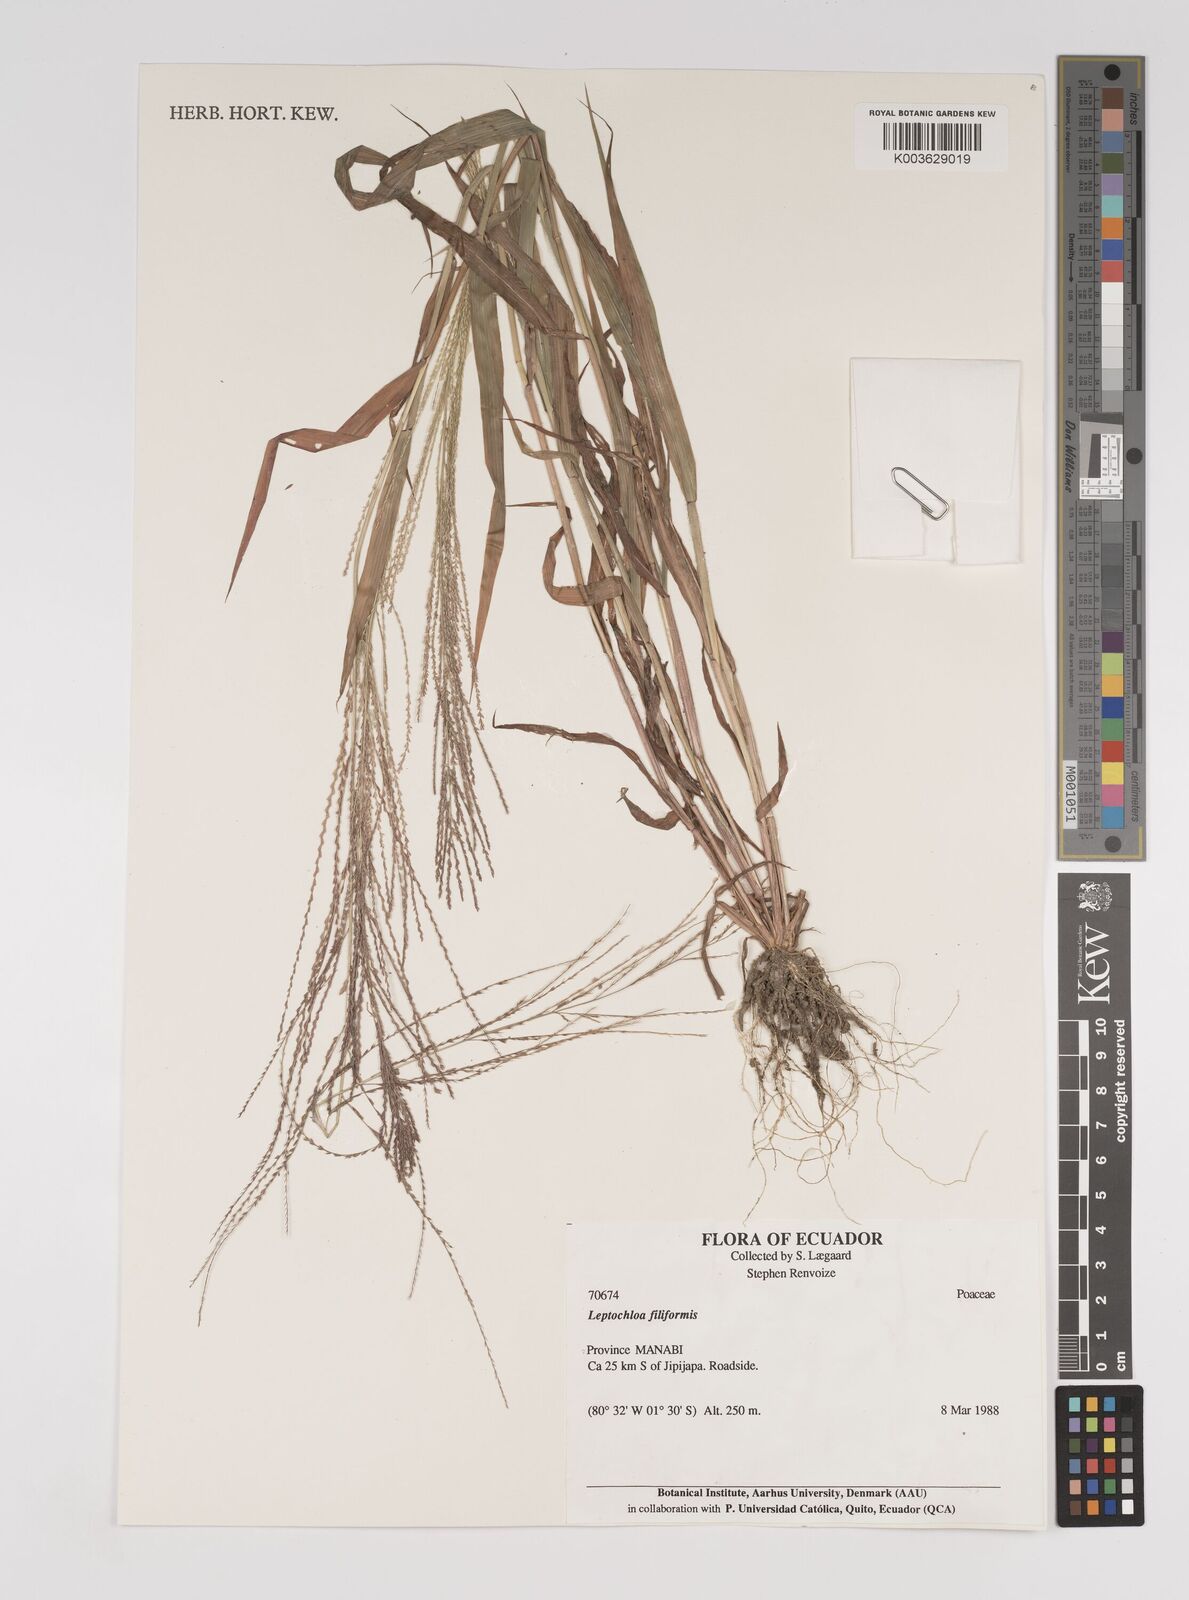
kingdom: Plantae
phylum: Tracheophyta
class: Liliopsida
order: Poales
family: Poaceae
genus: Leptochloa
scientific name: Leptochloa panicea
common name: Mucronate sprangletop
